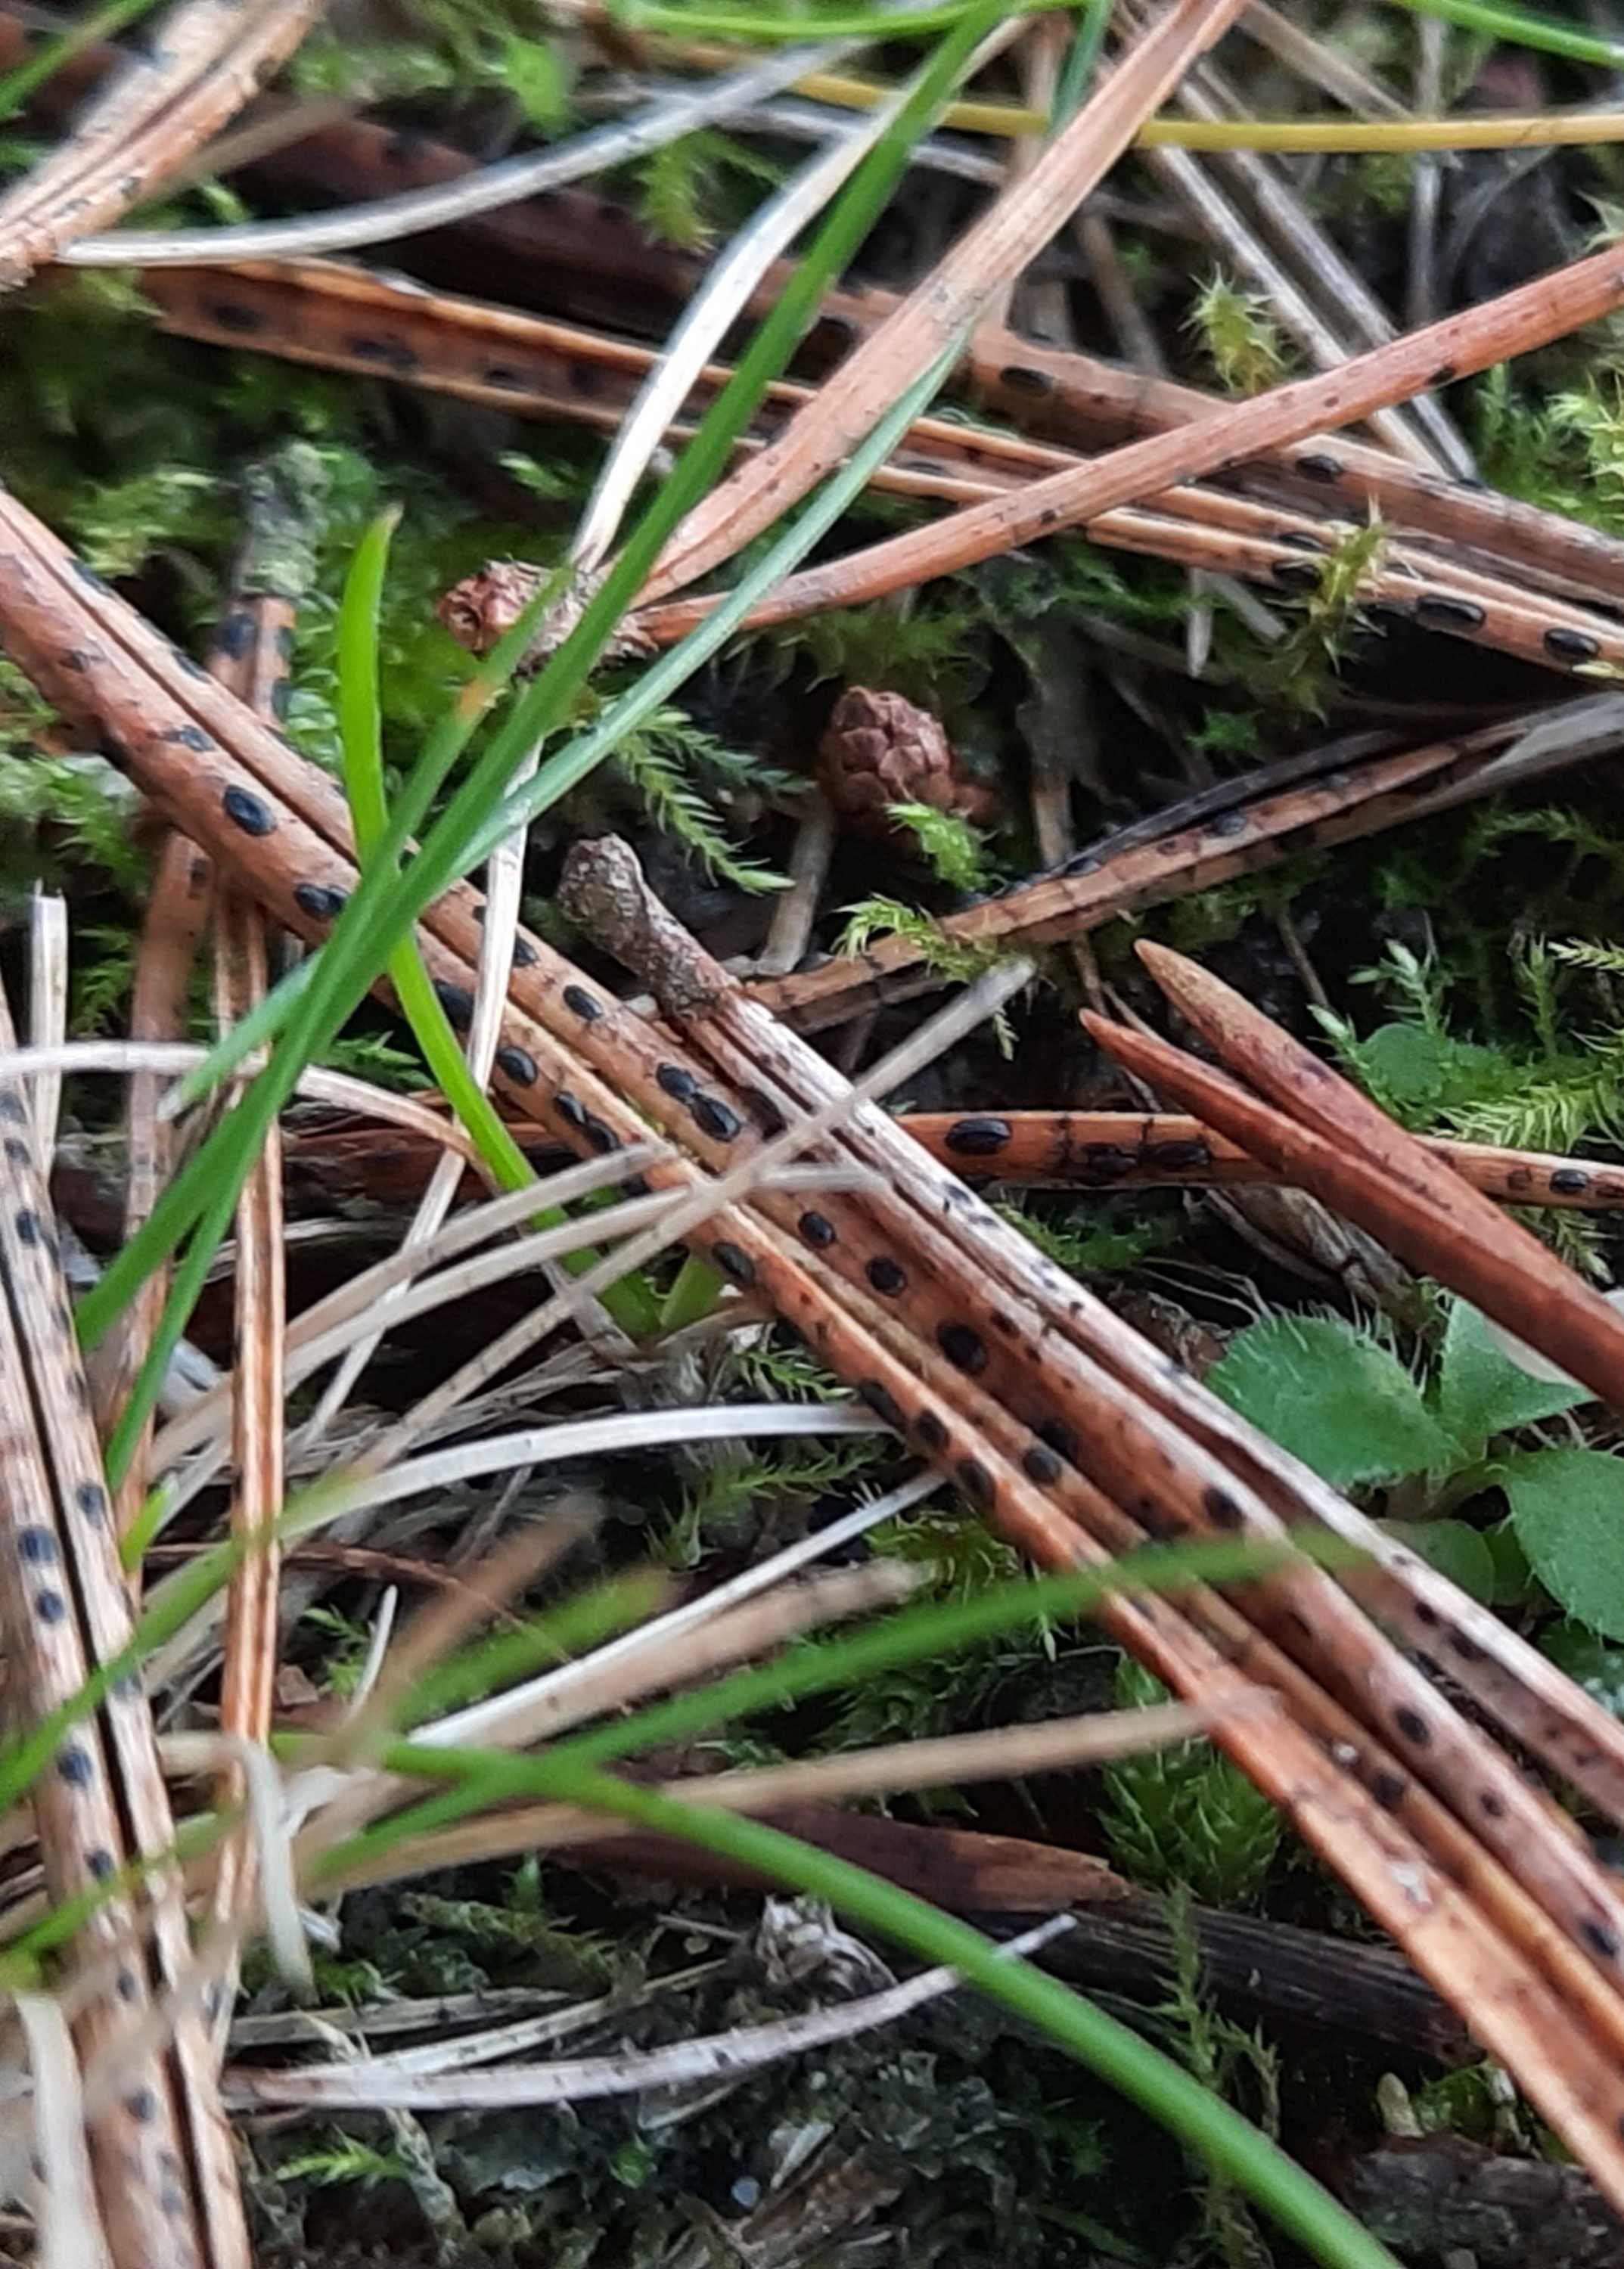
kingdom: Fungi
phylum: Ascomycota
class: Leotiomycetes
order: Rhytismatales
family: Rhytismataceae
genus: Lophodermium
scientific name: Lophodermium pinastri
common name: fyrre-fureplet
